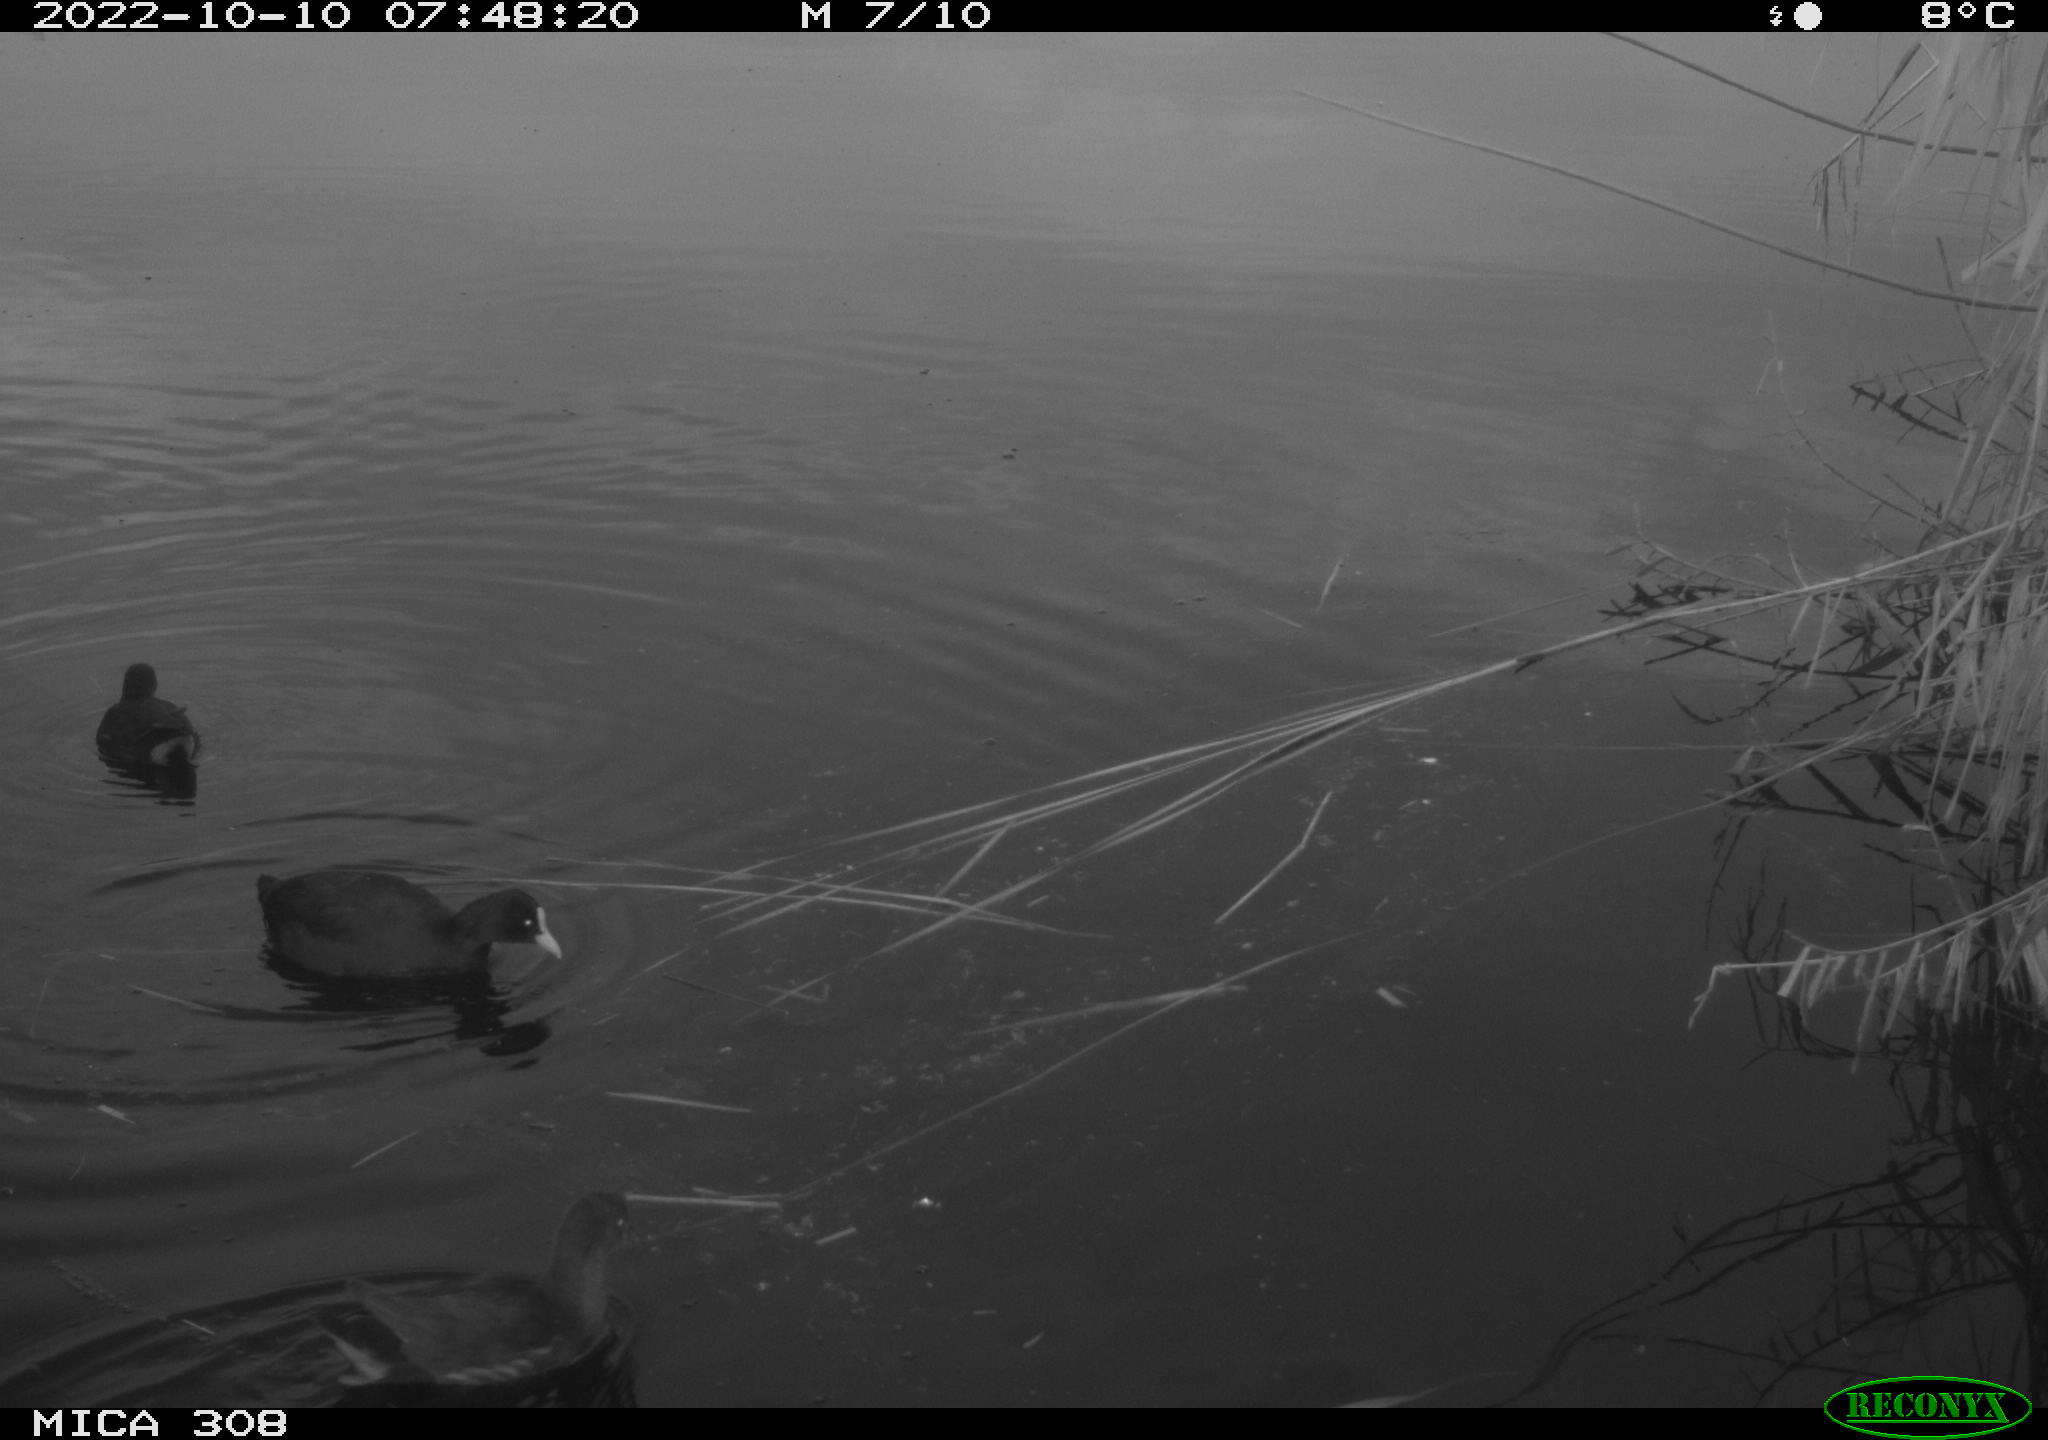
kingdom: Animalia
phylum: Chordata
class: Aves
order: Gruiformes
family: Rallidae
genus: Fulica
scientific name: Fulica atra
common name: Eurasian coot
